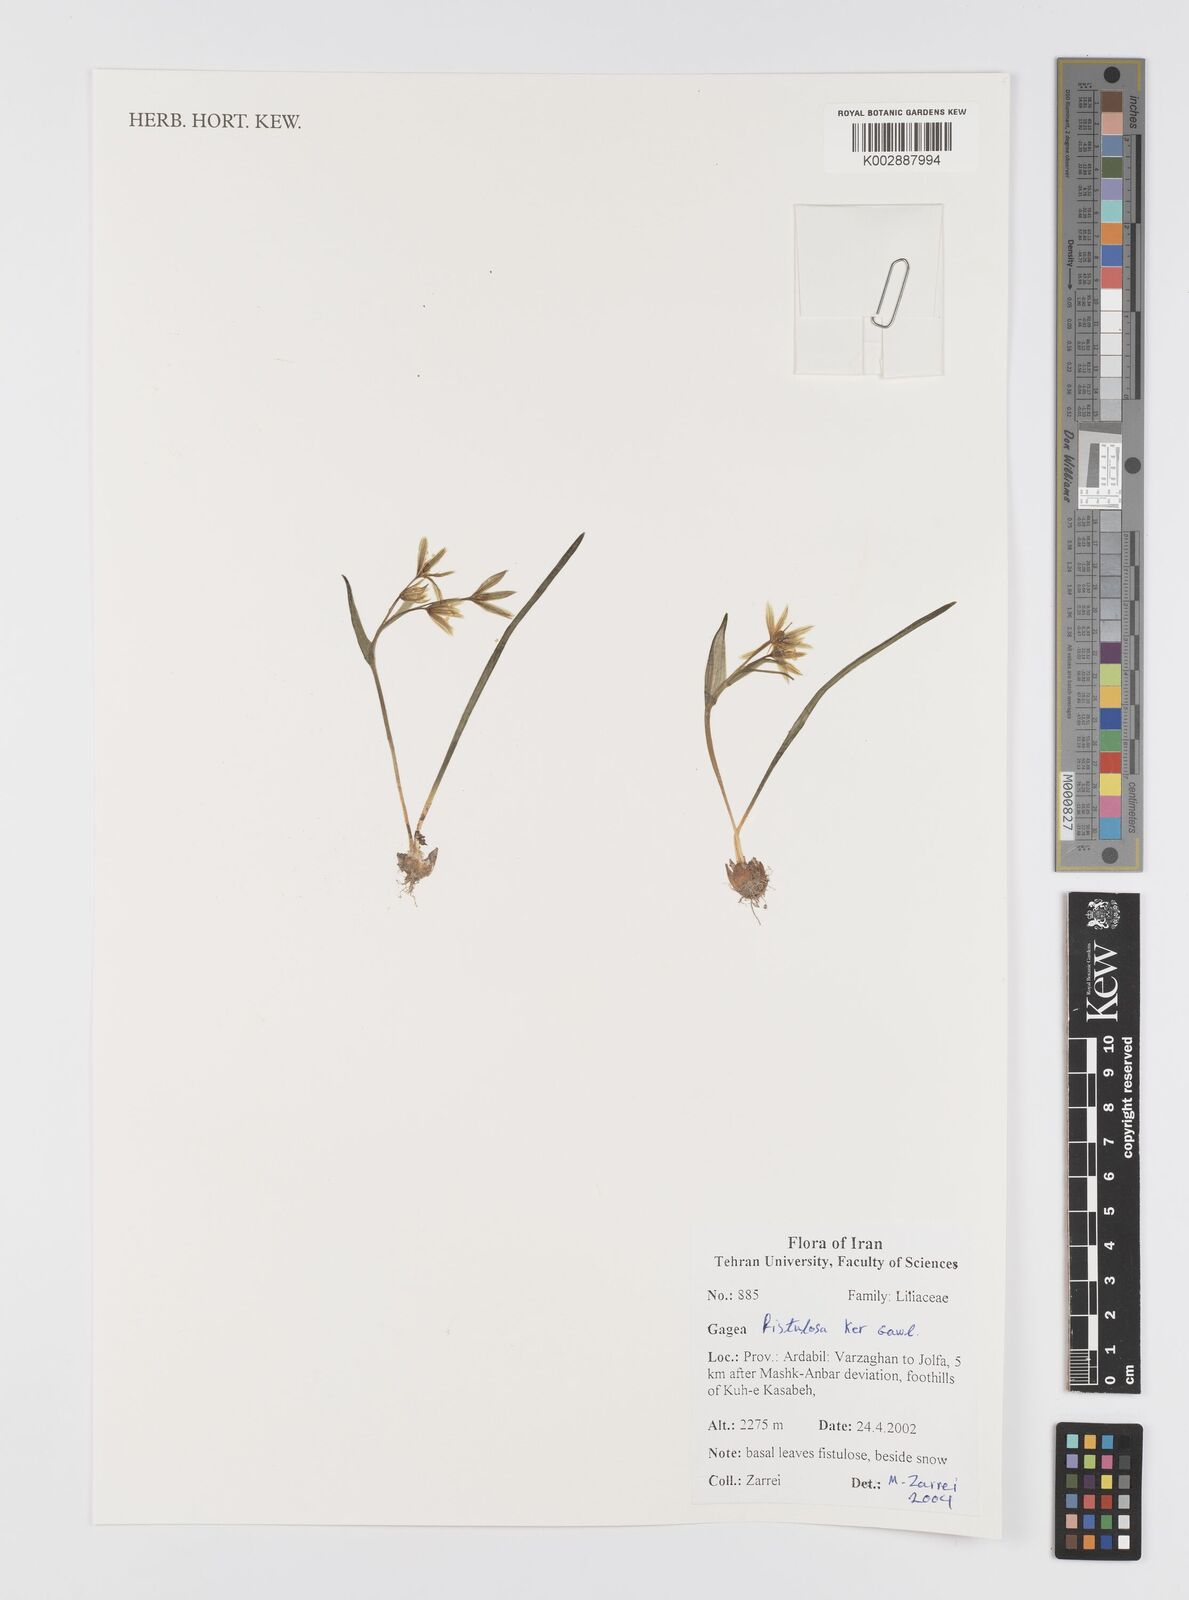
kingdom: Plantae
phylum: Tracheophyta
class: Liliopsida
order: Liliales
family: Liliaceae
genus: Gagea
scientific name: Gagea bohemica
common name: Early star-of-bethlehem
